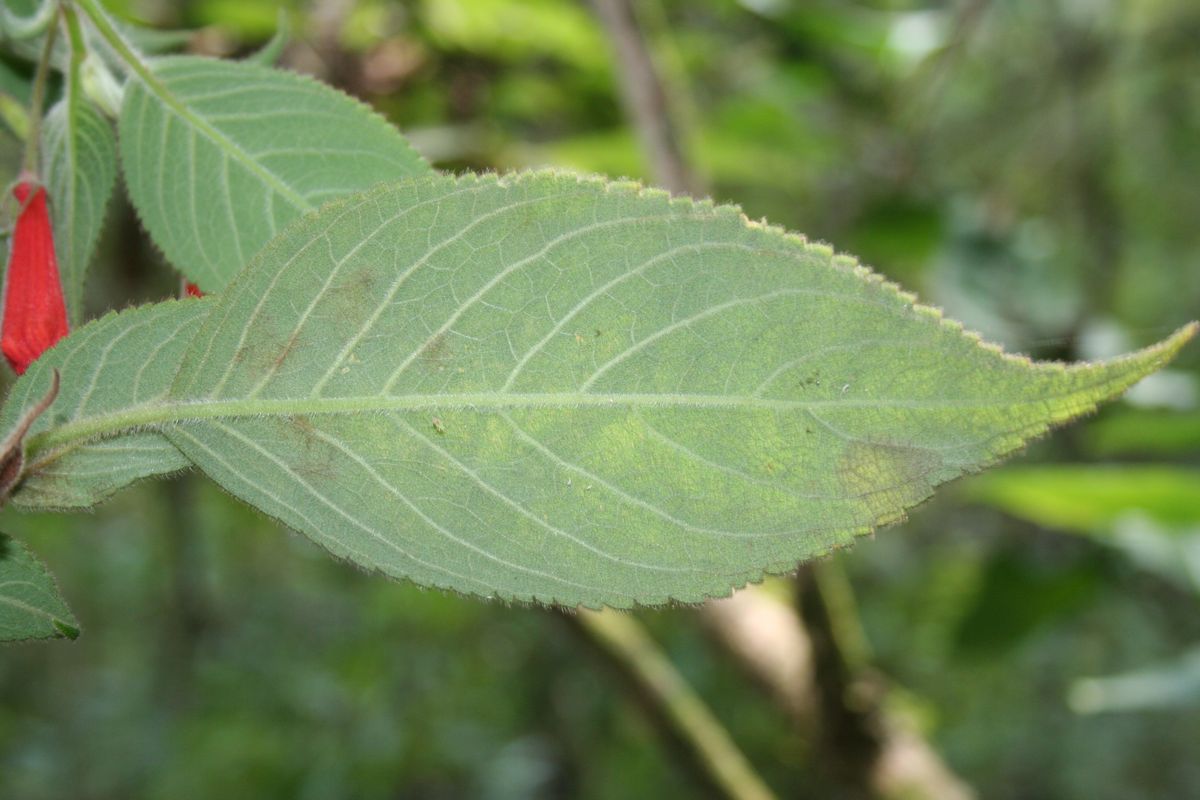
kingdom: Plantae
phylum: Tracheophyta
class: Magnoliopsida
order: Lamiales
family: Gesneriaceae
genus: Moussonia
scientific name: Moussonia
